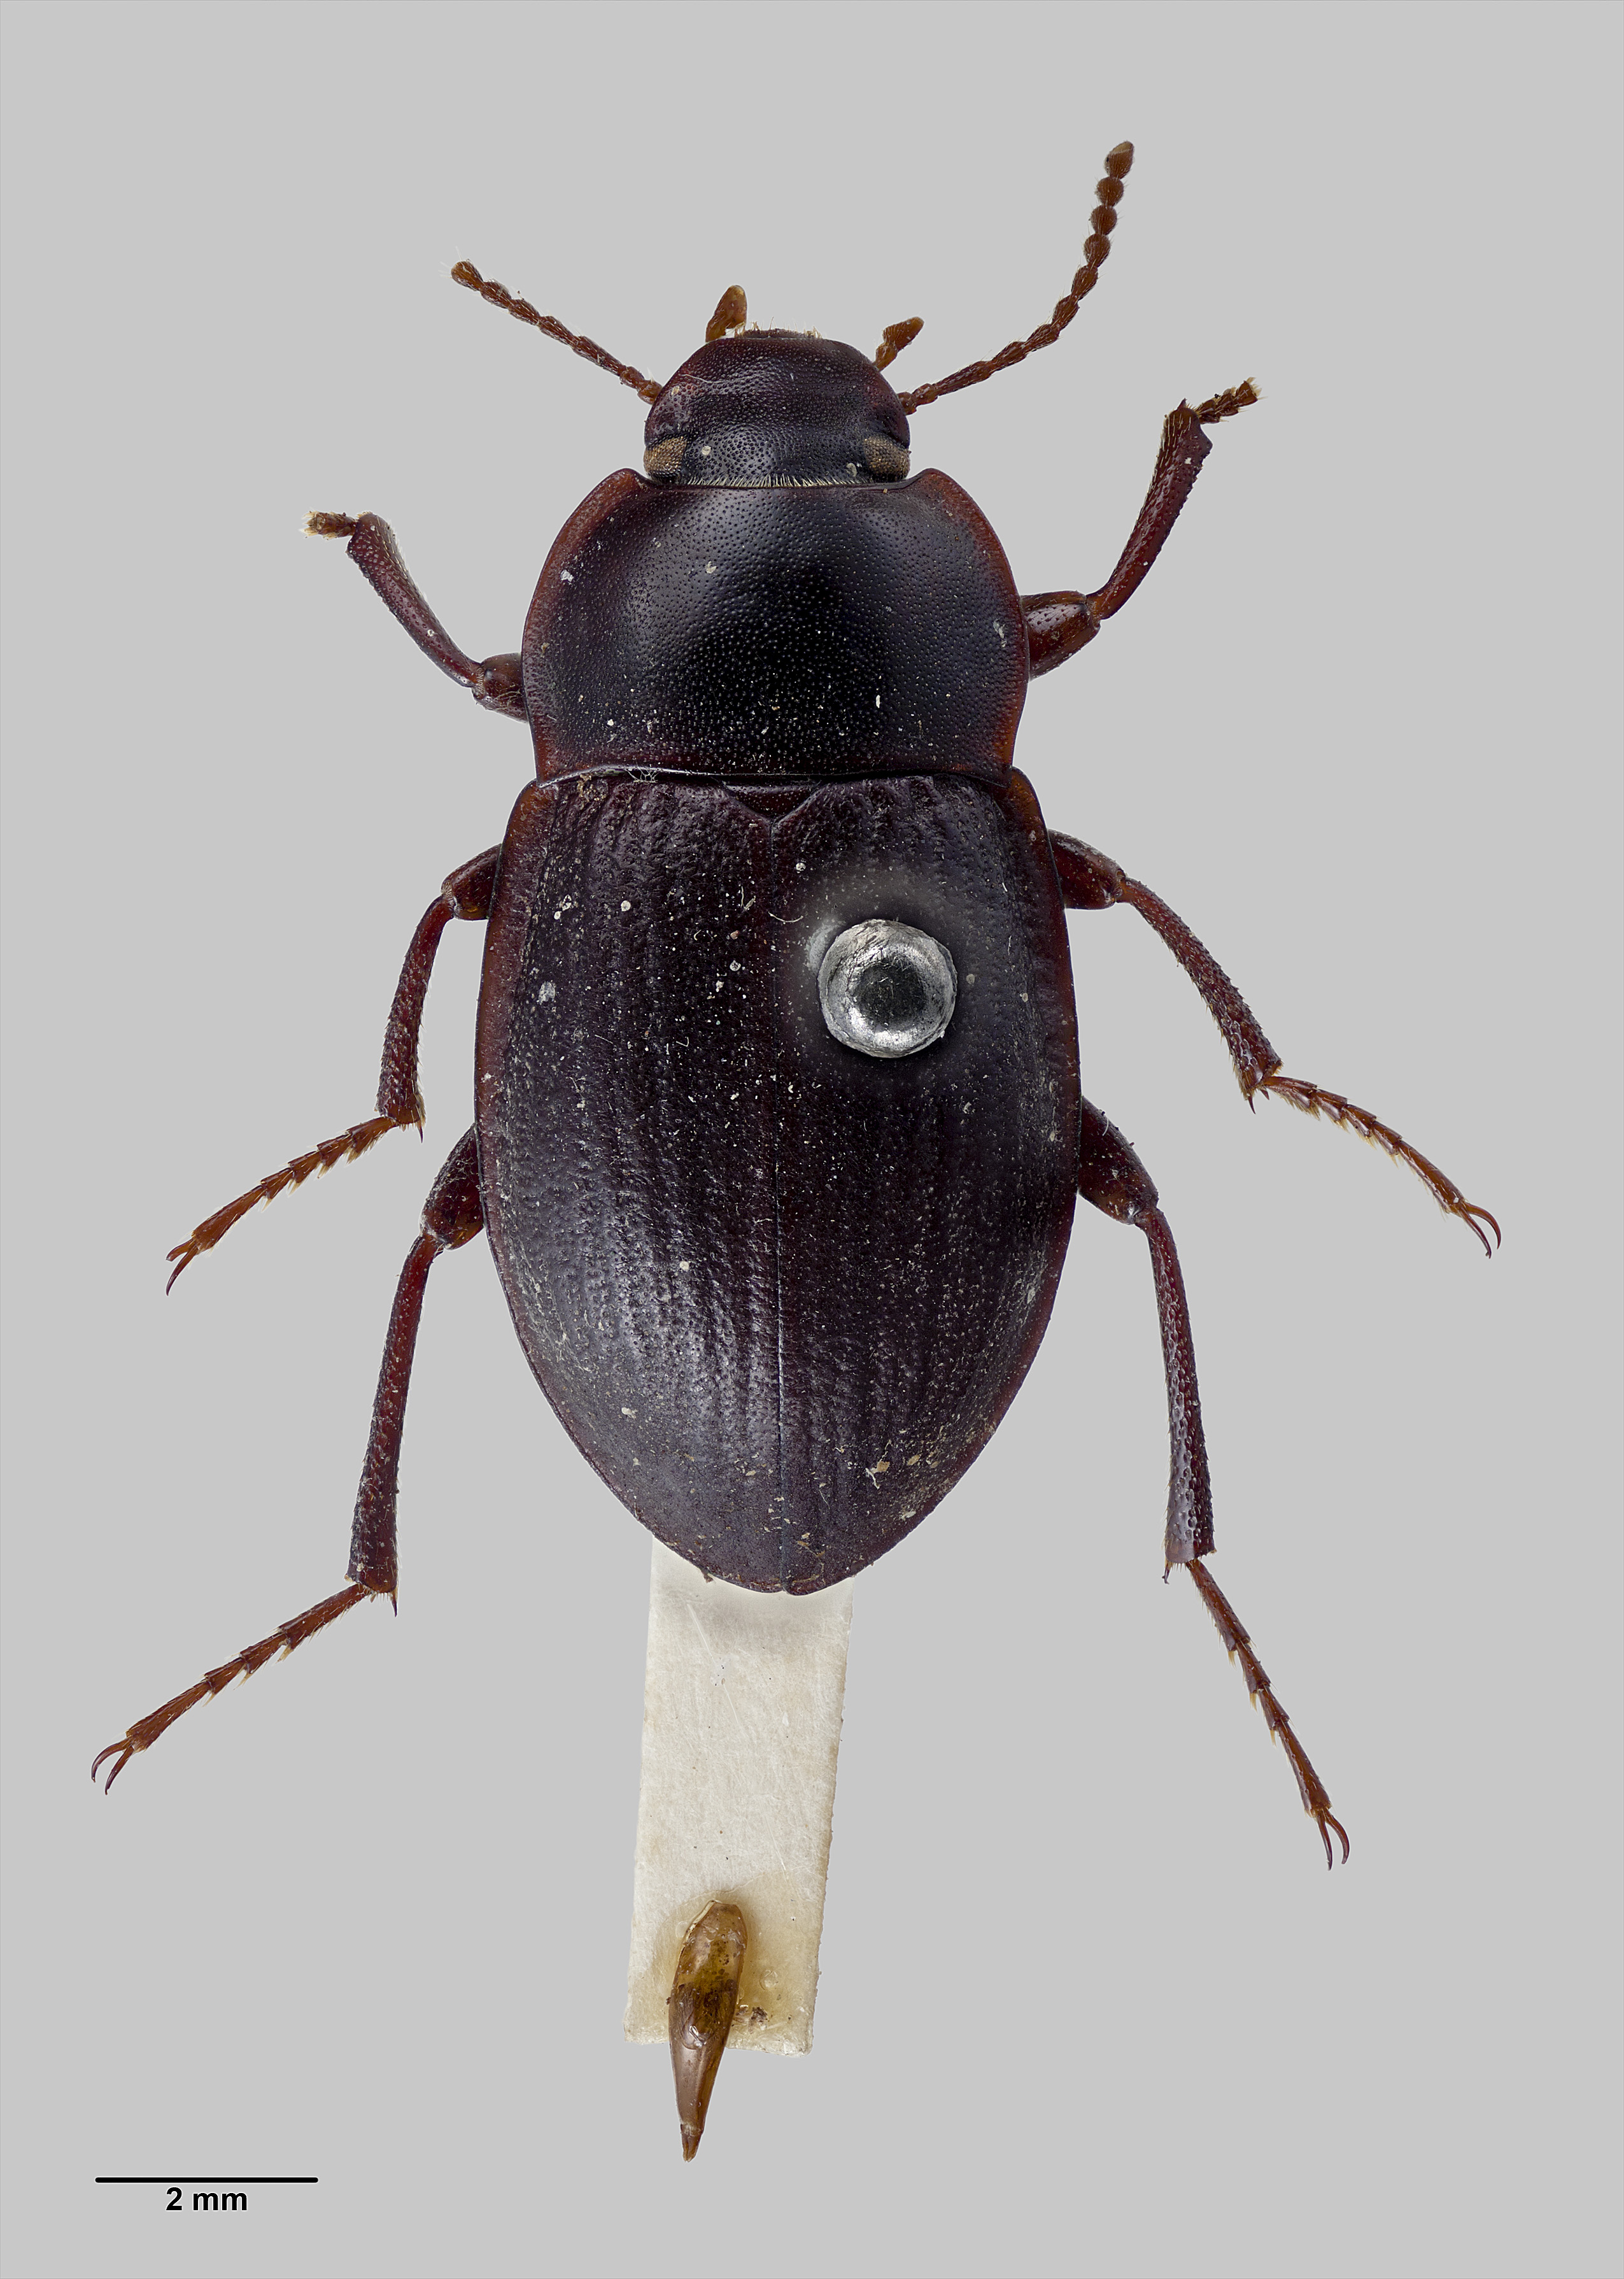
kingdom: Animalia
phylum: Arthropoda
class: Insecta
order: Coleoptera
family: Tenebrionidae
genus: Mimopeus
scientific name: Mimopeus
